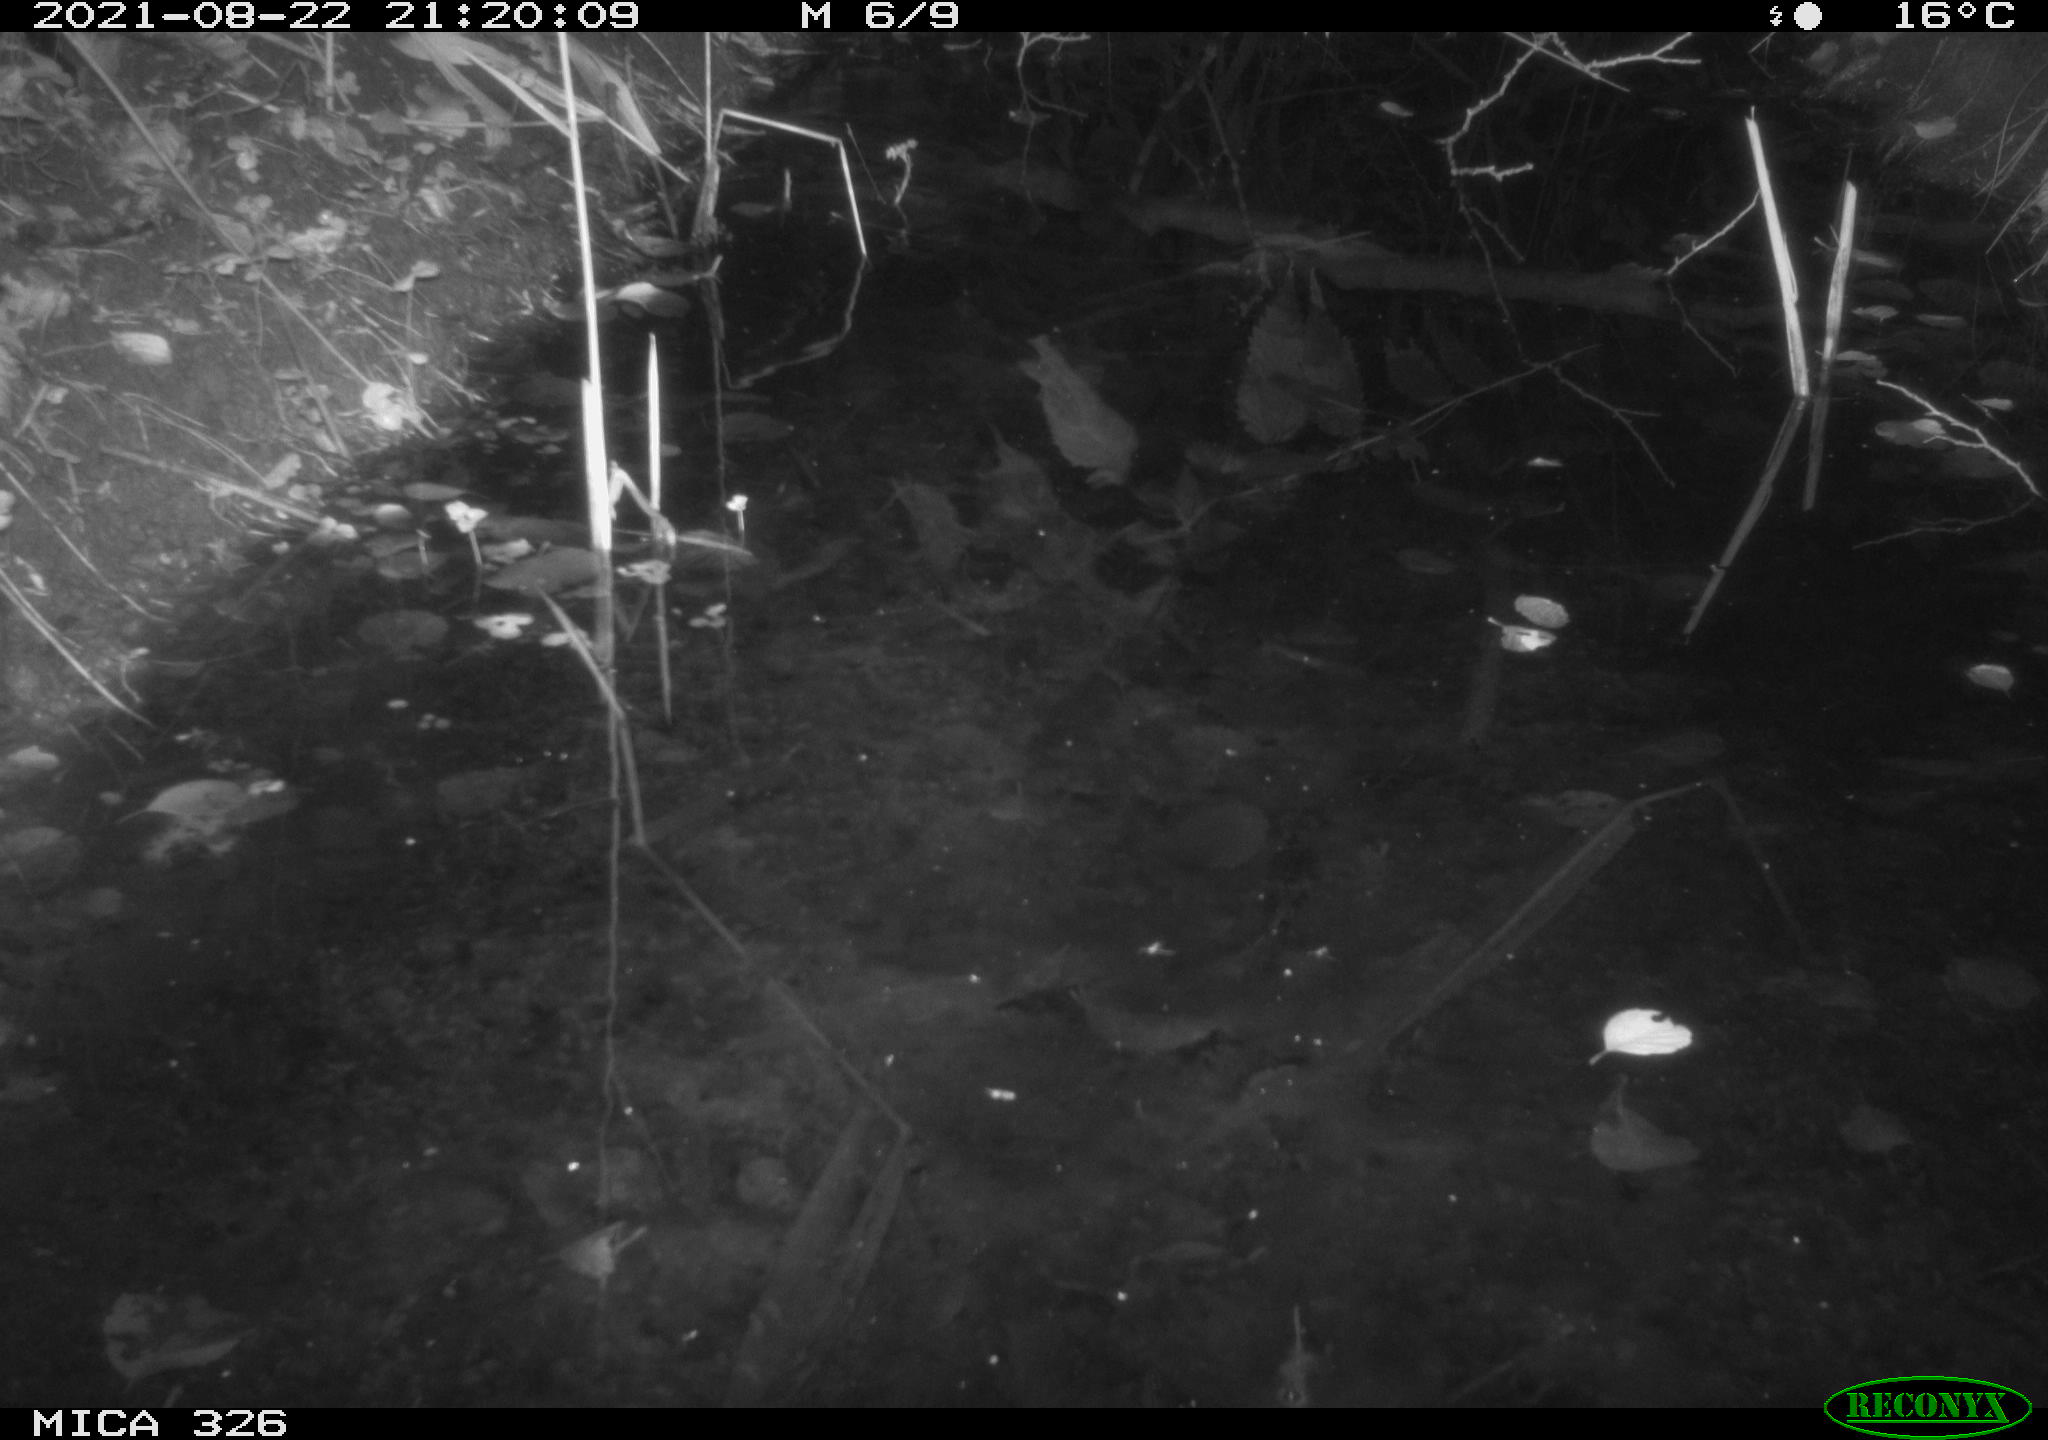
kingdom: Animalia
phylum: Chordata
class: Mammalia
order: Rodentia
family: Muridae
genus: Rattus
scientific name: Rattus norvegicus
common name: Brown rat
